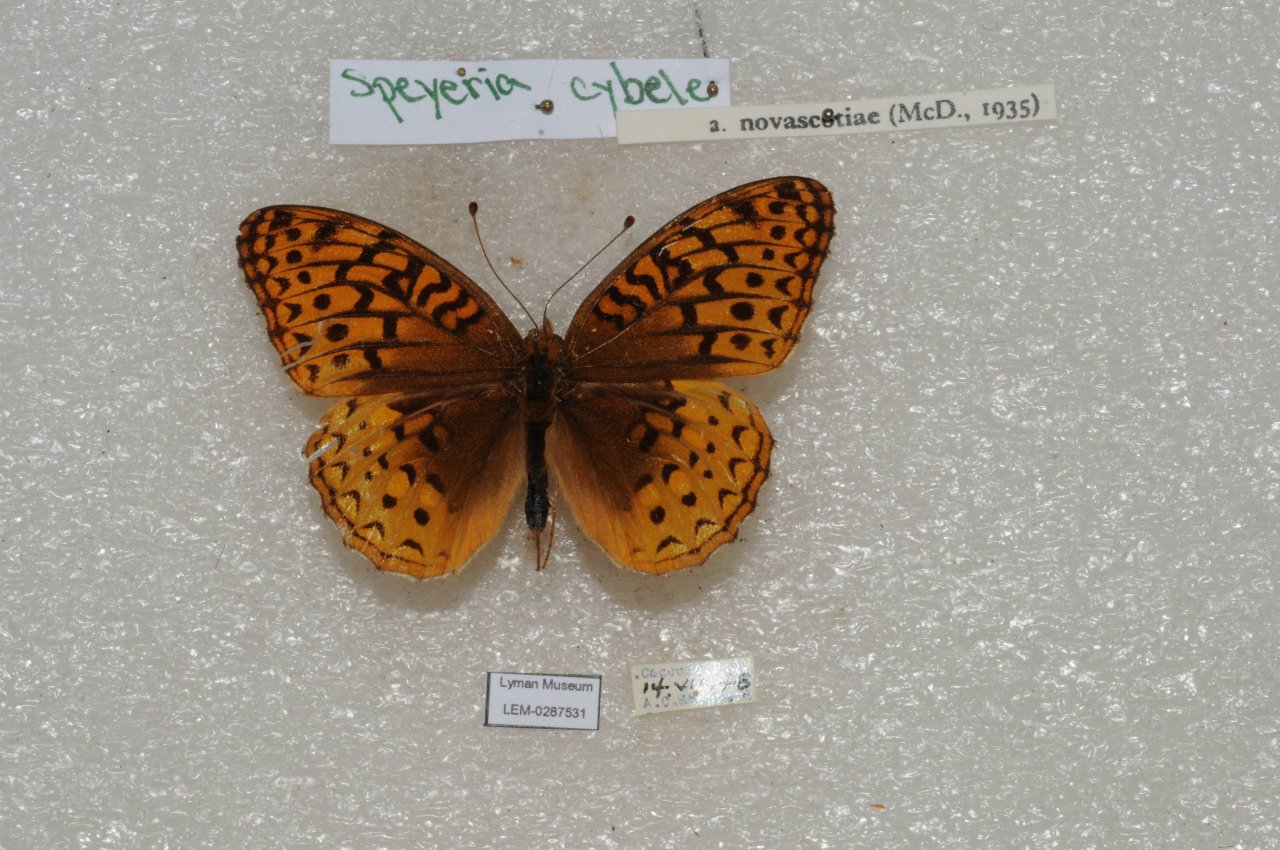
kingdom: Animalia
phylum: Arthropoda
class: Insecta
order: Lepidoptera
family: Nymphalidae
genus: Speyeria
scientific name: Speyeria cybele
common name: Great Spangled Fritillary
